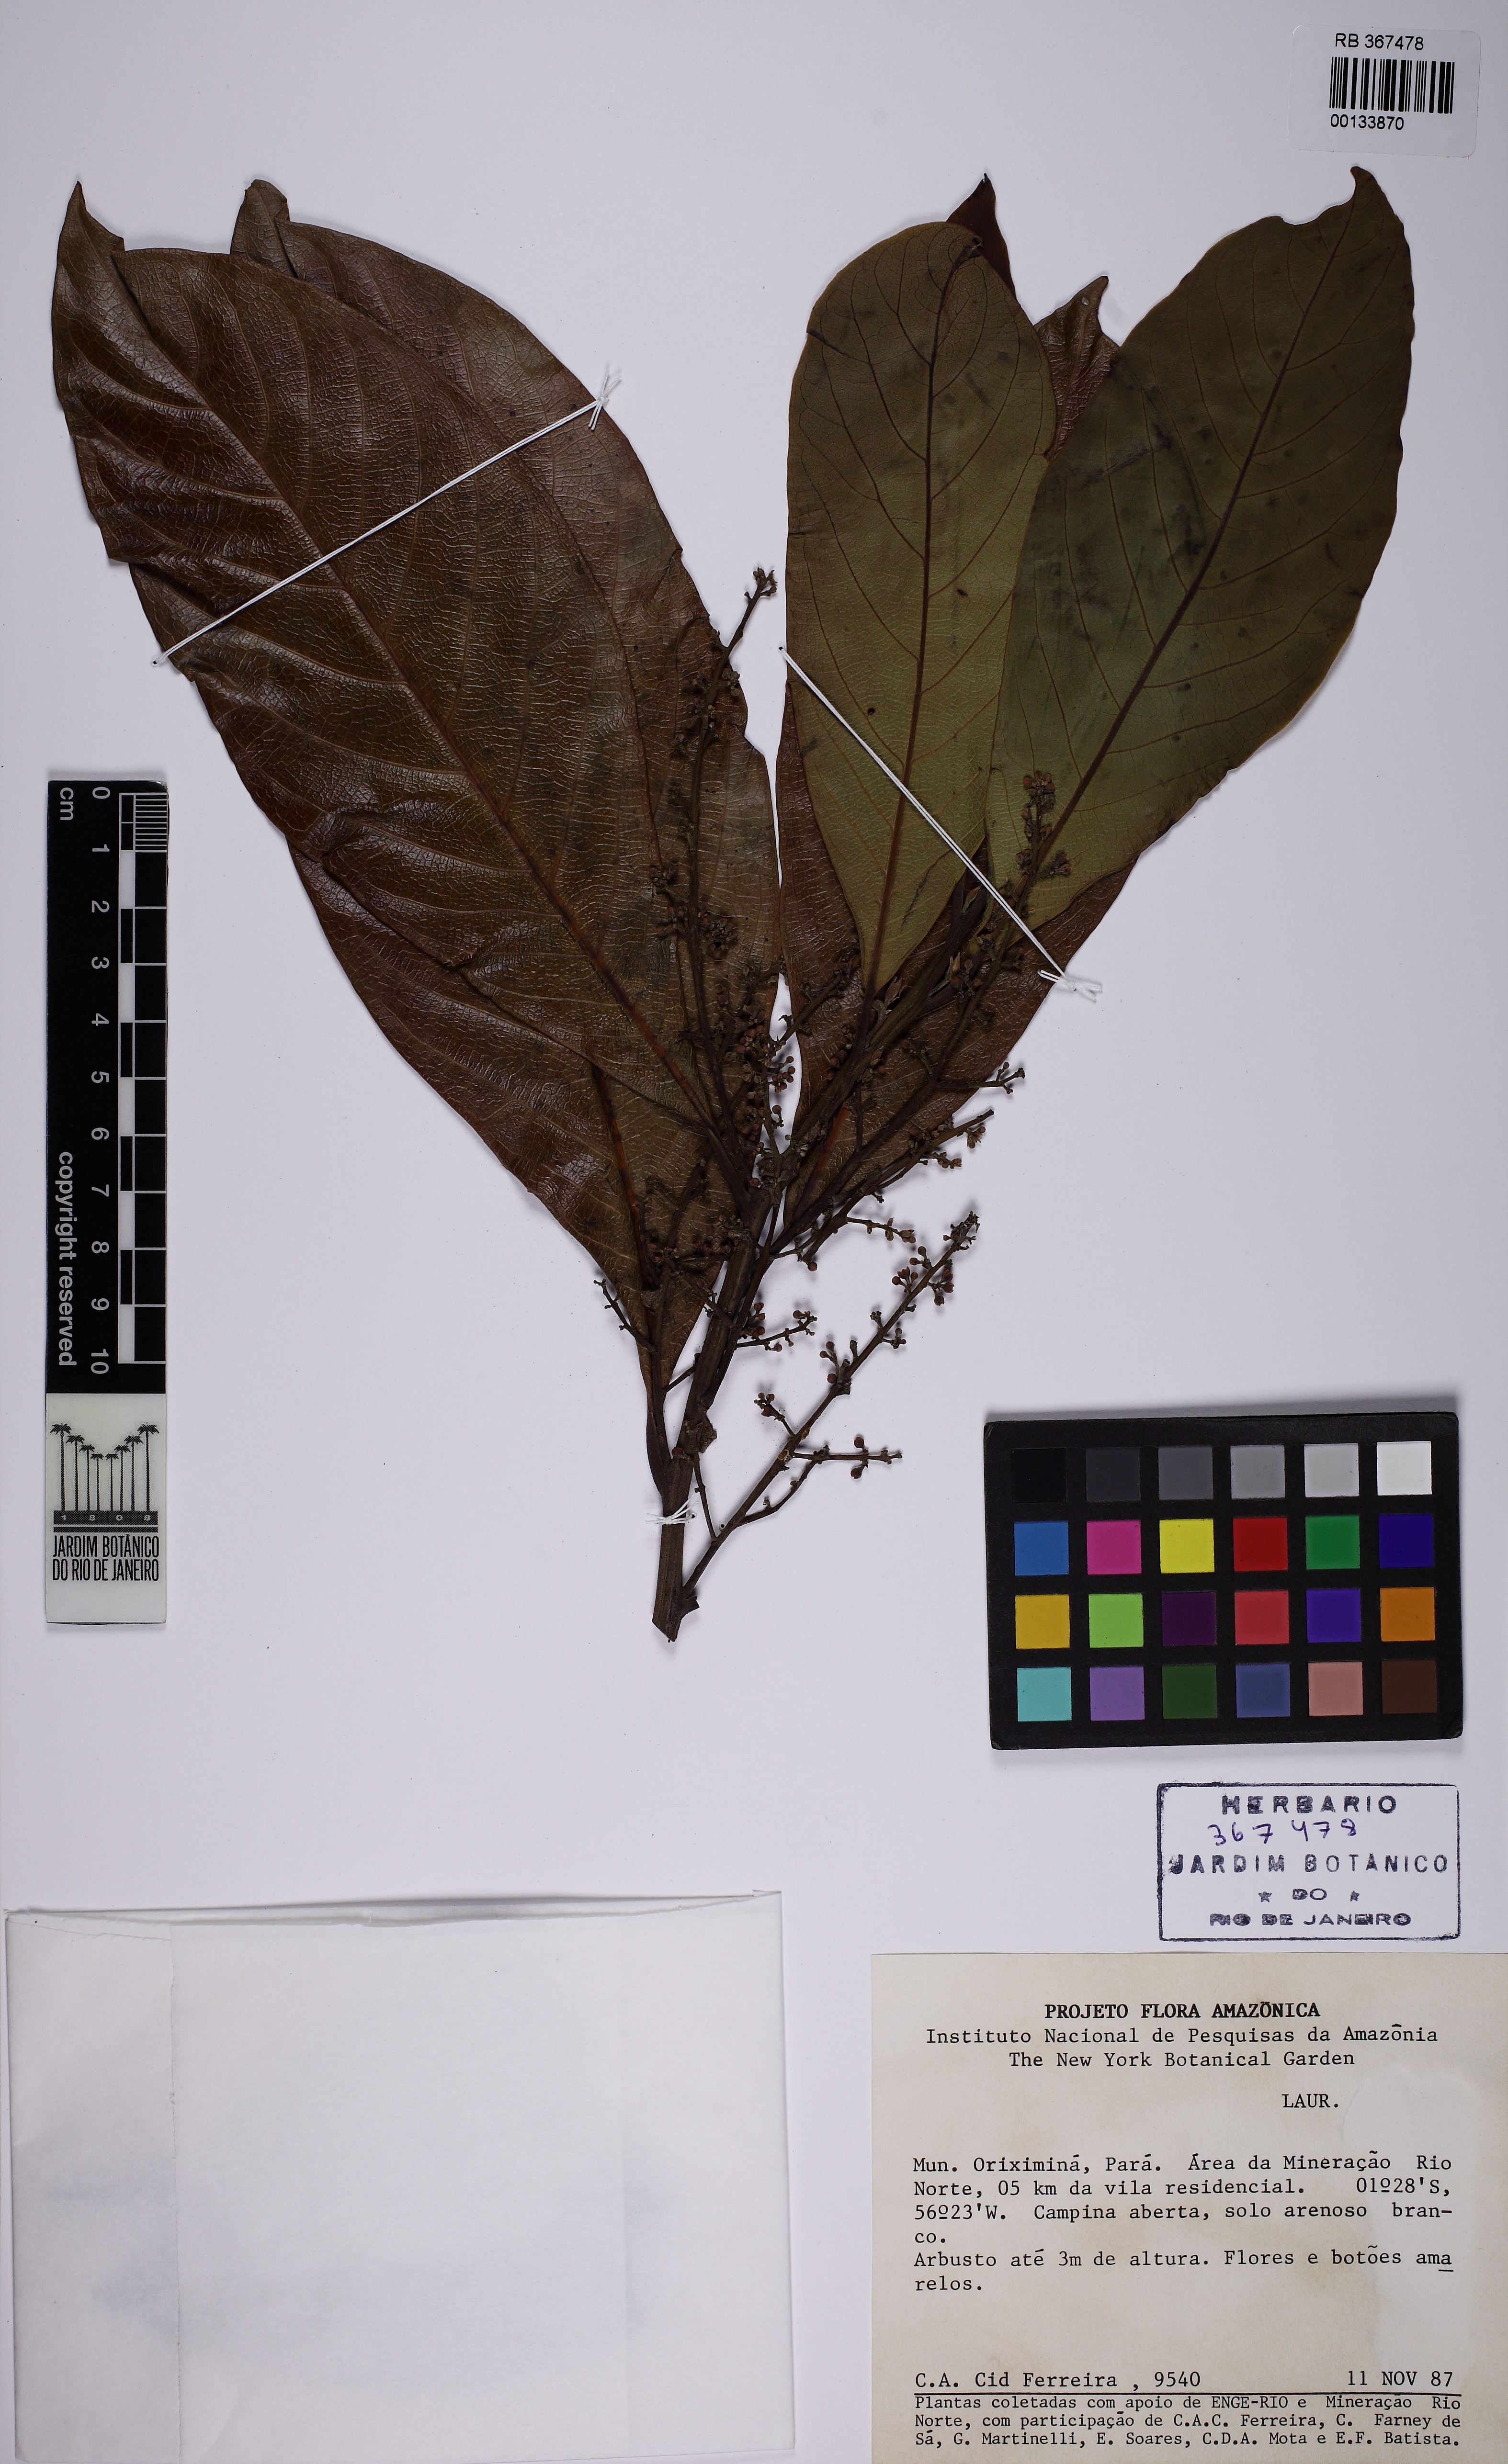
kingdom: Plantae
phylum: Tracheophyta
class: Magnoliopsida
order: Laurales
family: Lauraceae
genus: Mespilodaphne
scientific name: Mespilodaphne opifera
